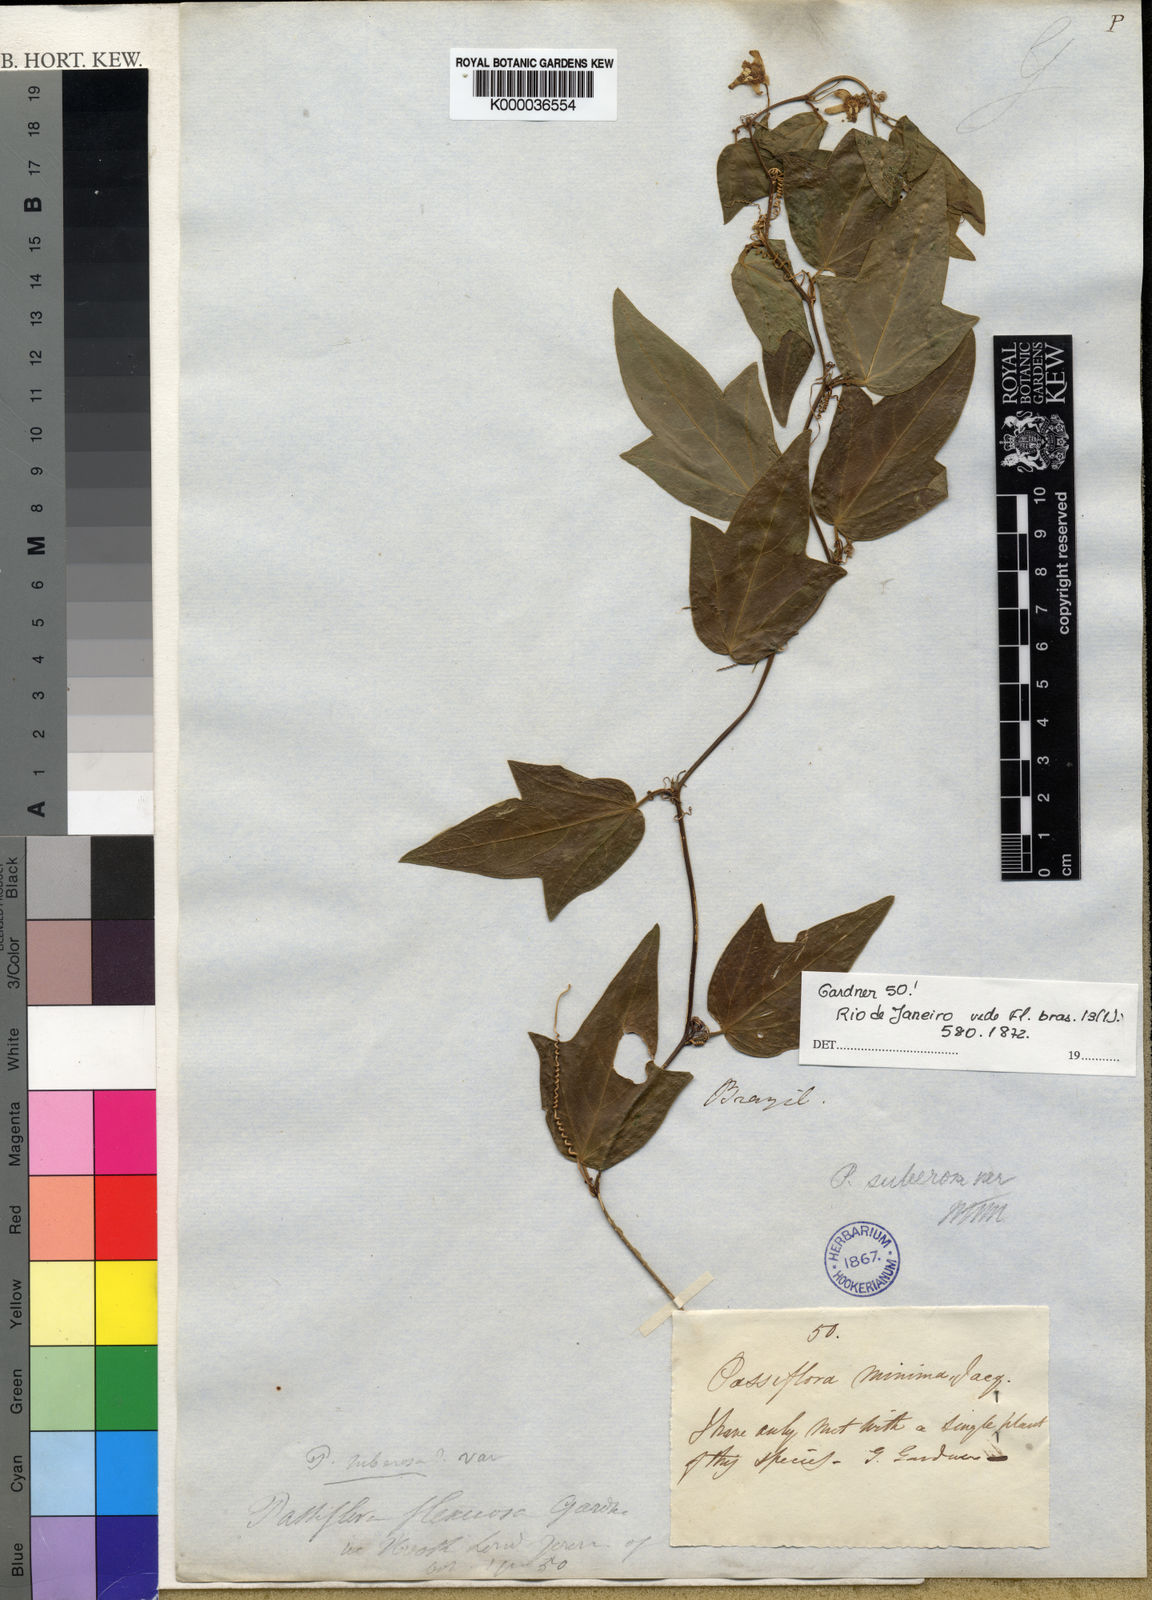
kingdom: Plantae
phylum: Tracheophyta
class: Magnoliopsida
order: Malpighiales
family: Passifloraceae
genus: Passiflora
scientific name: Passiflora suberosa
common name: Wild passionfruit
